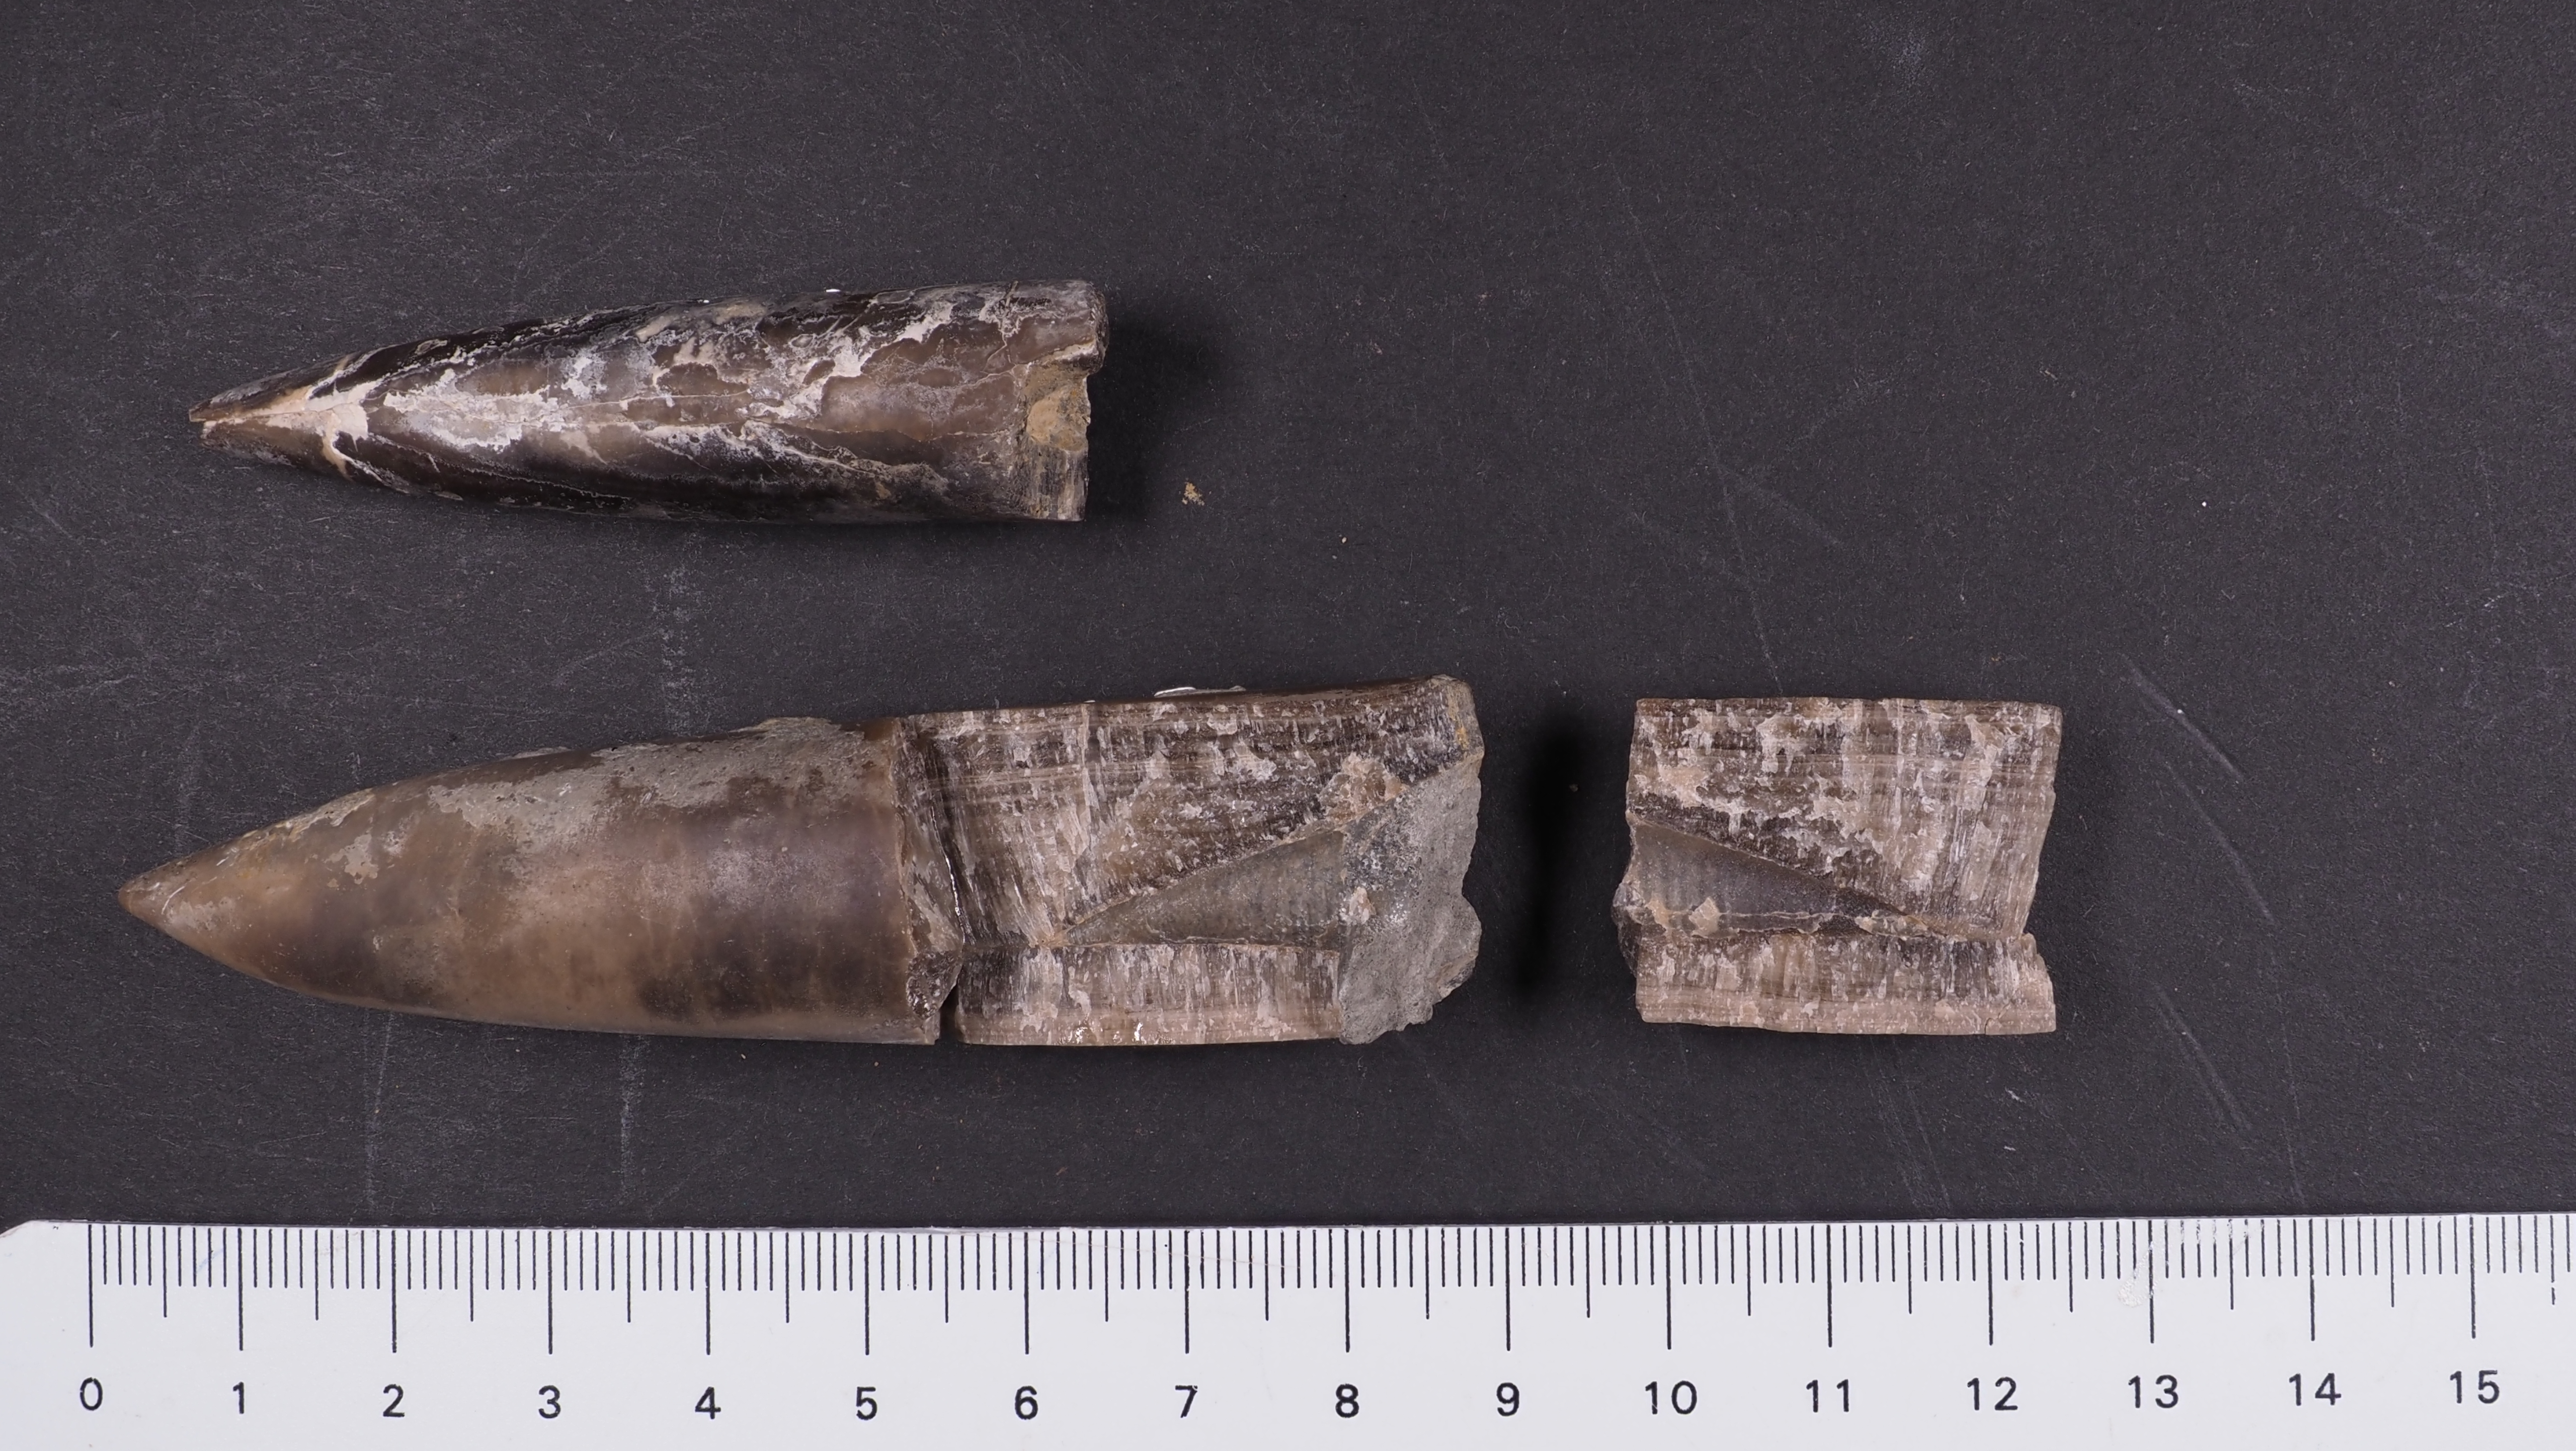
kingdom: Animalia
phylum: Mollusca
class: Cephalopoda
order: Belemnitida
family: Megateuthididae
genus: Acrocoelites
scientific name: Acrocoelites
